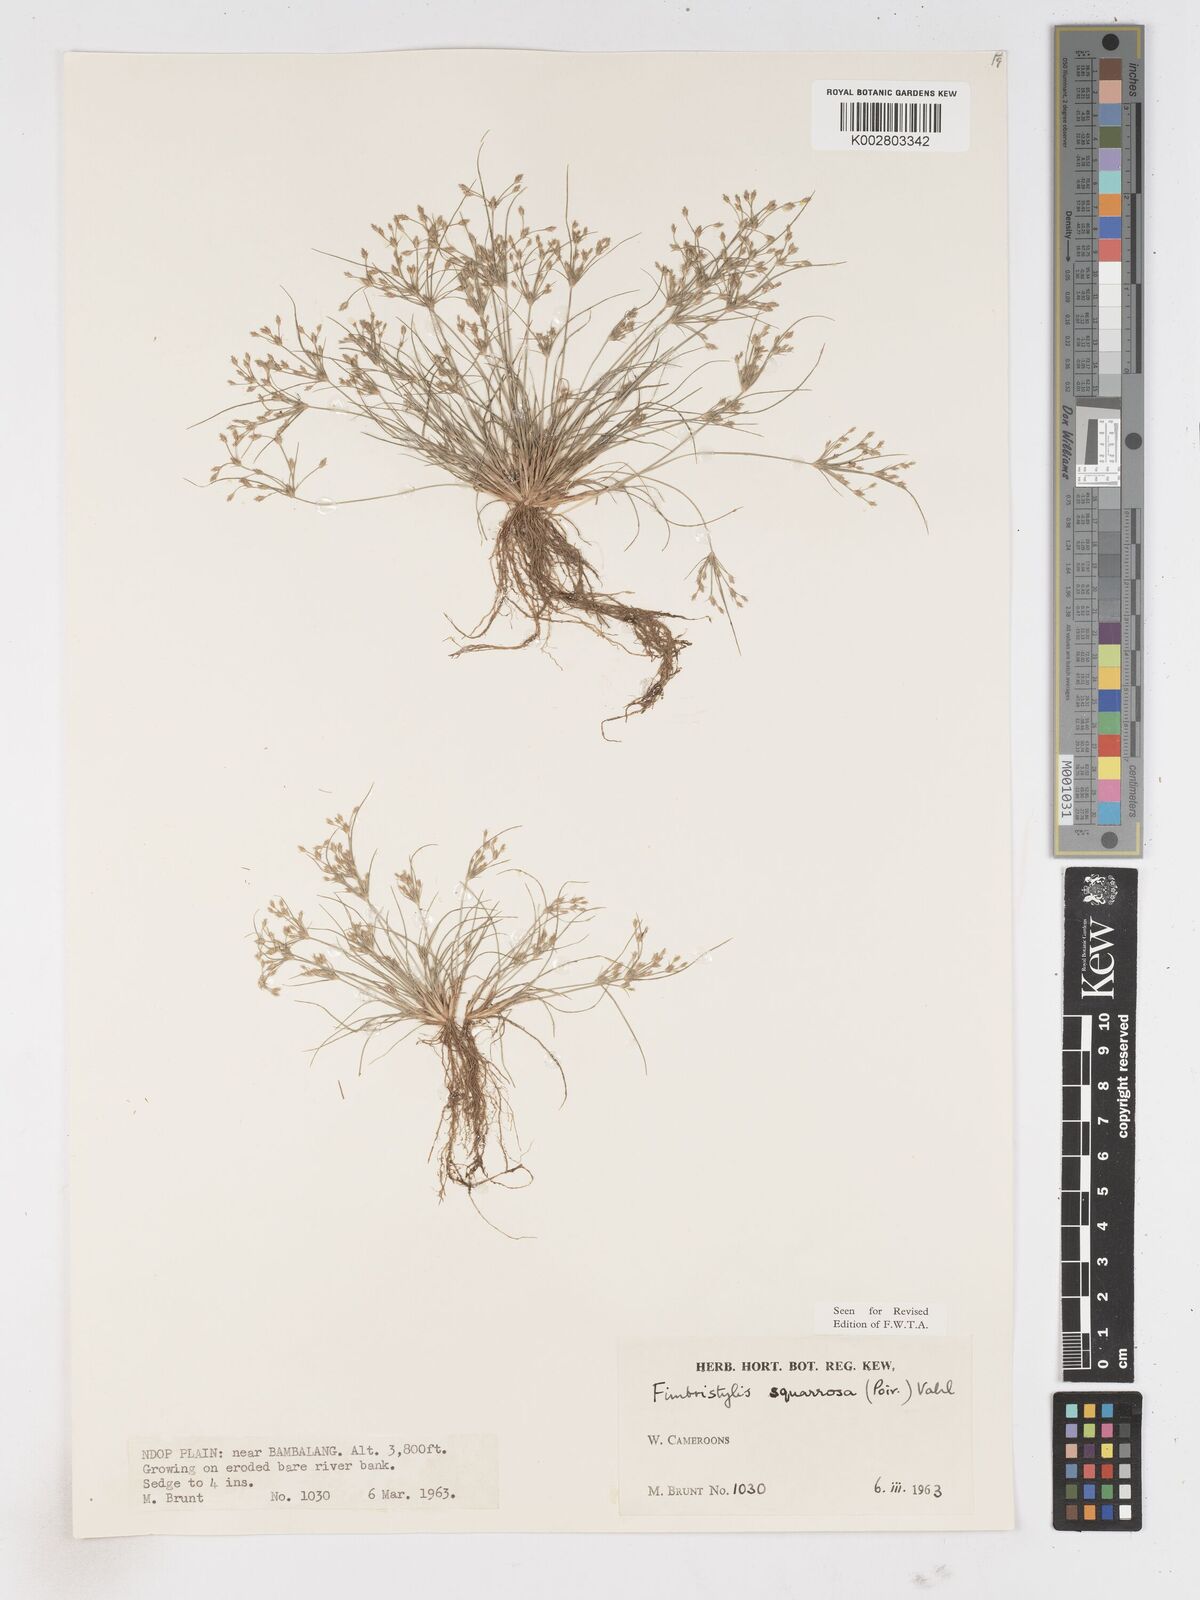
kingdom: Plantae
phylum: Tracheophyta
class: Liliopsida
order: Poales
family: Cyperaceae
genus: Fimbristylis
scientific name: Fimbristylis squarrosa
